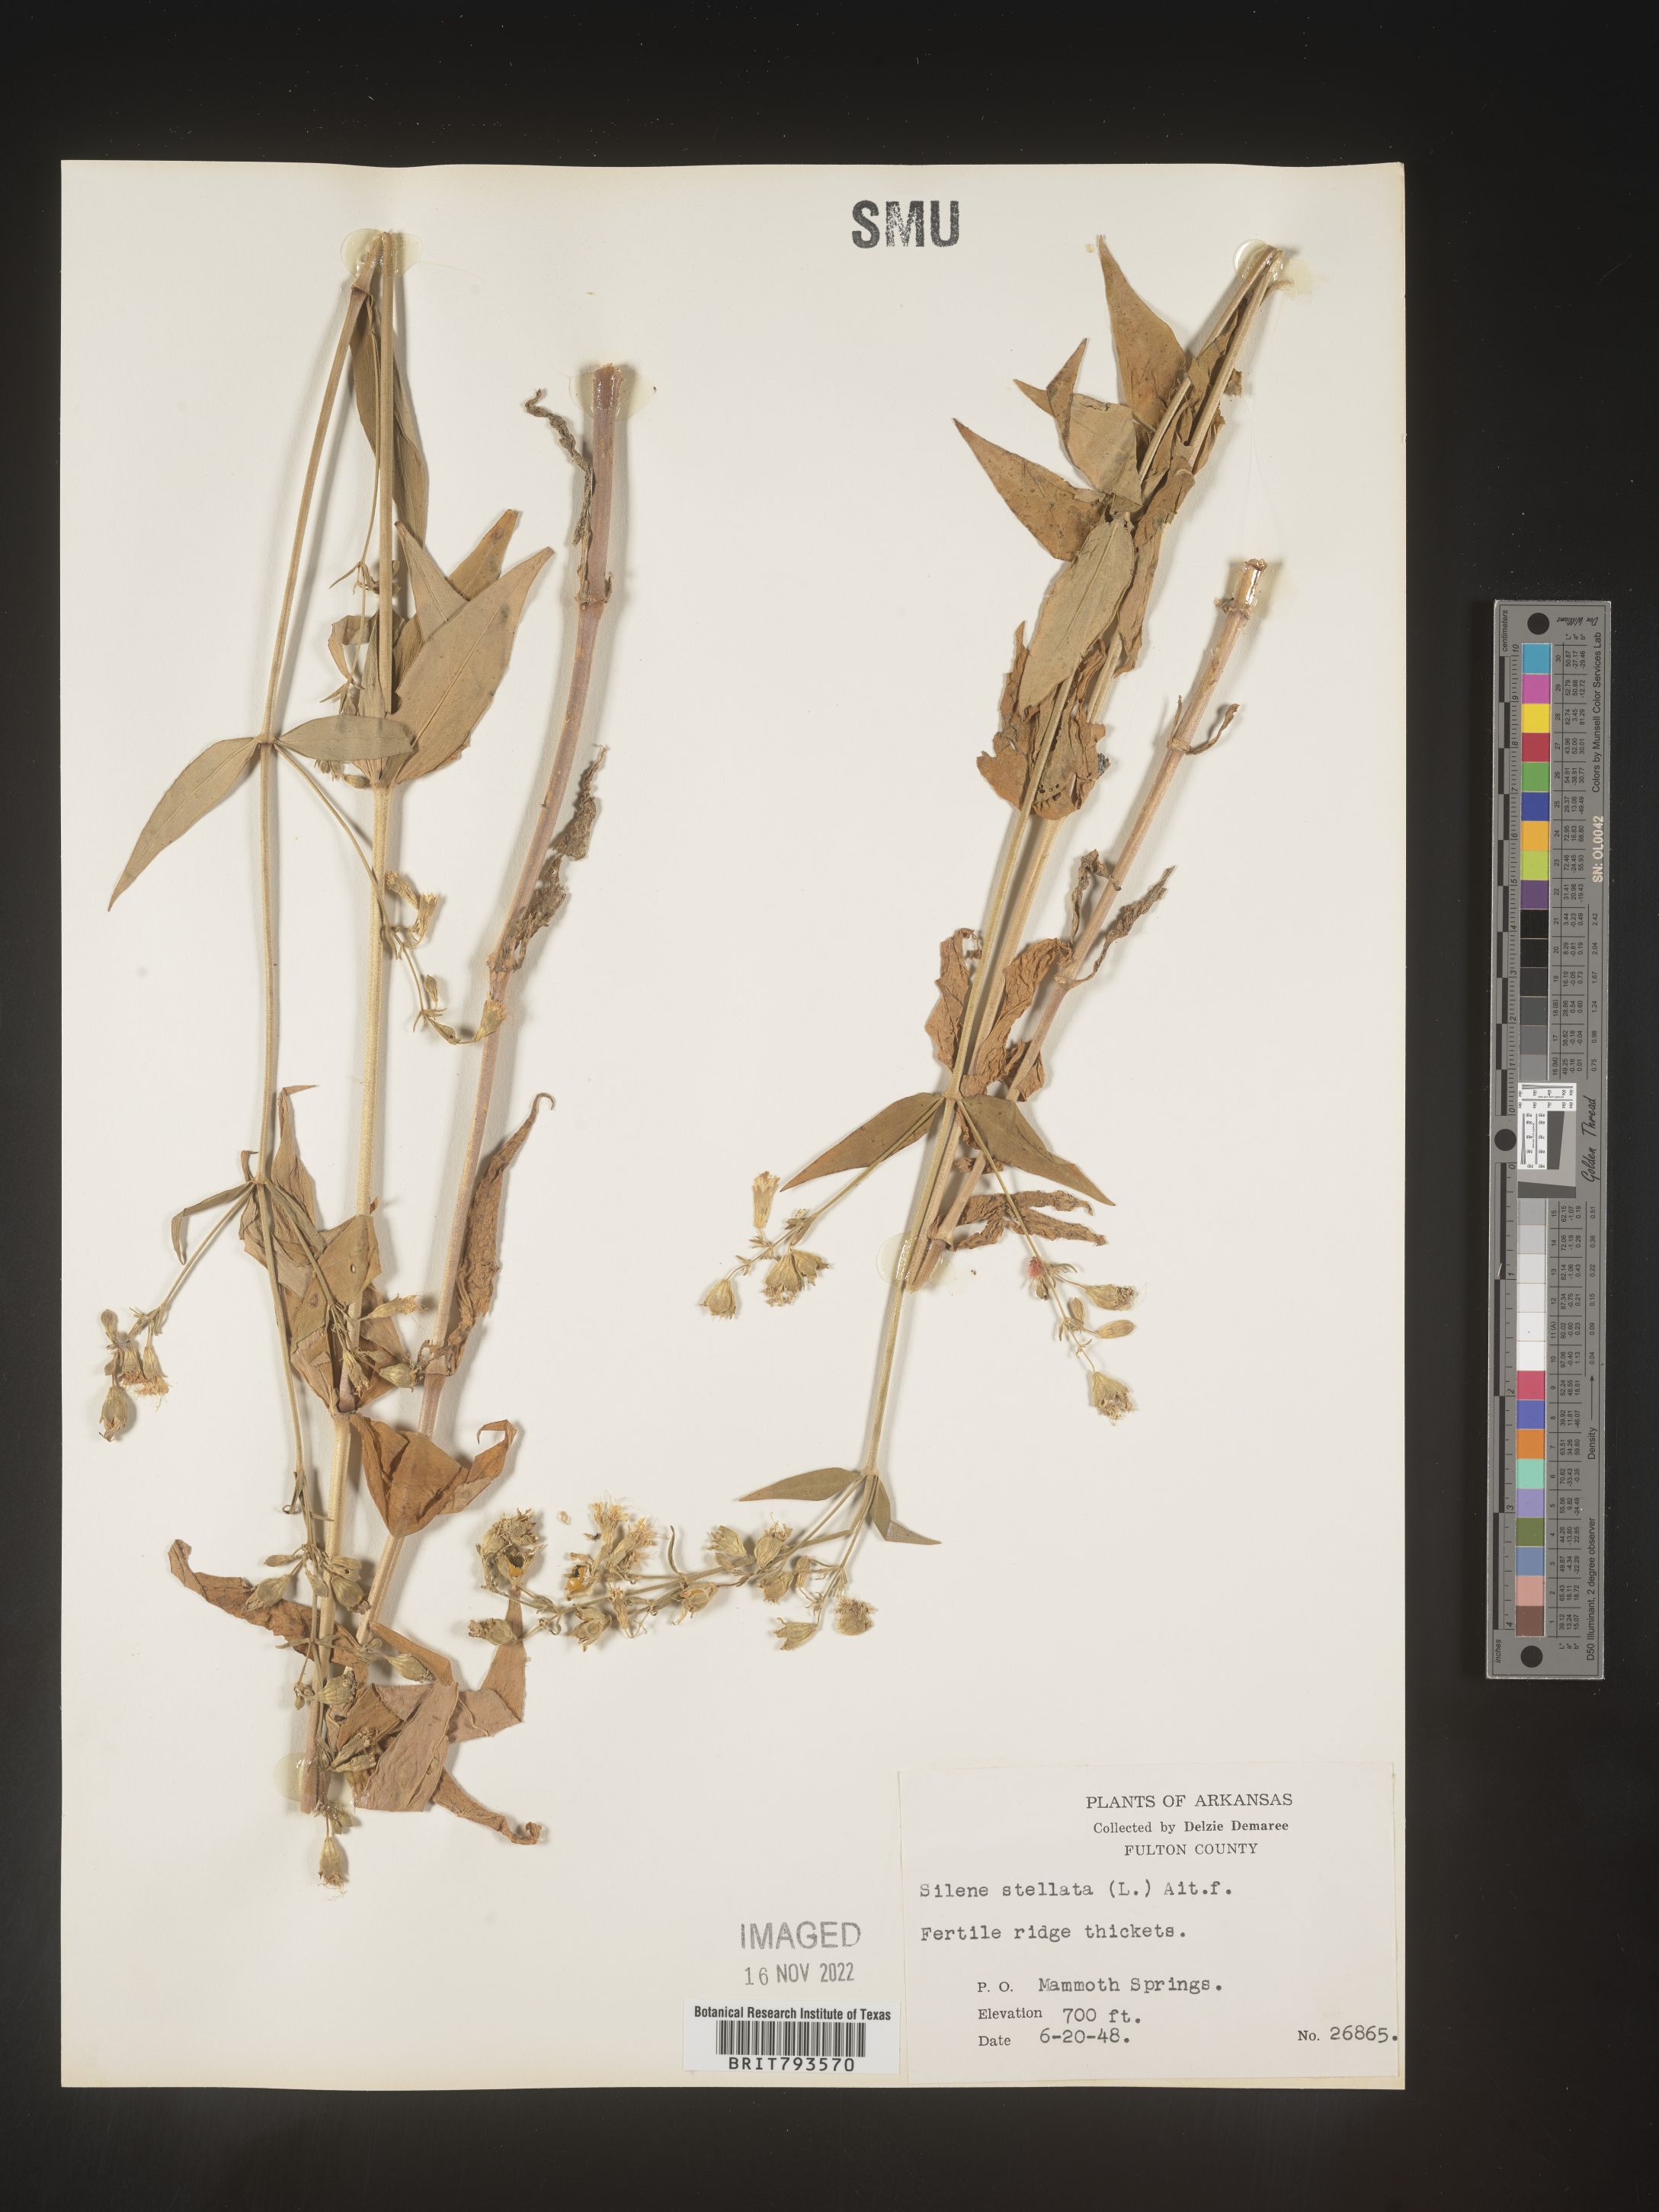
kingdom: Plantae
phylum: Tracheophyta
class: Magnoliopsida
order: Caryophyllales
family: Caryophyllaceae
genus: Silene
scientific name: Silene stellata
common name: Starry campion
